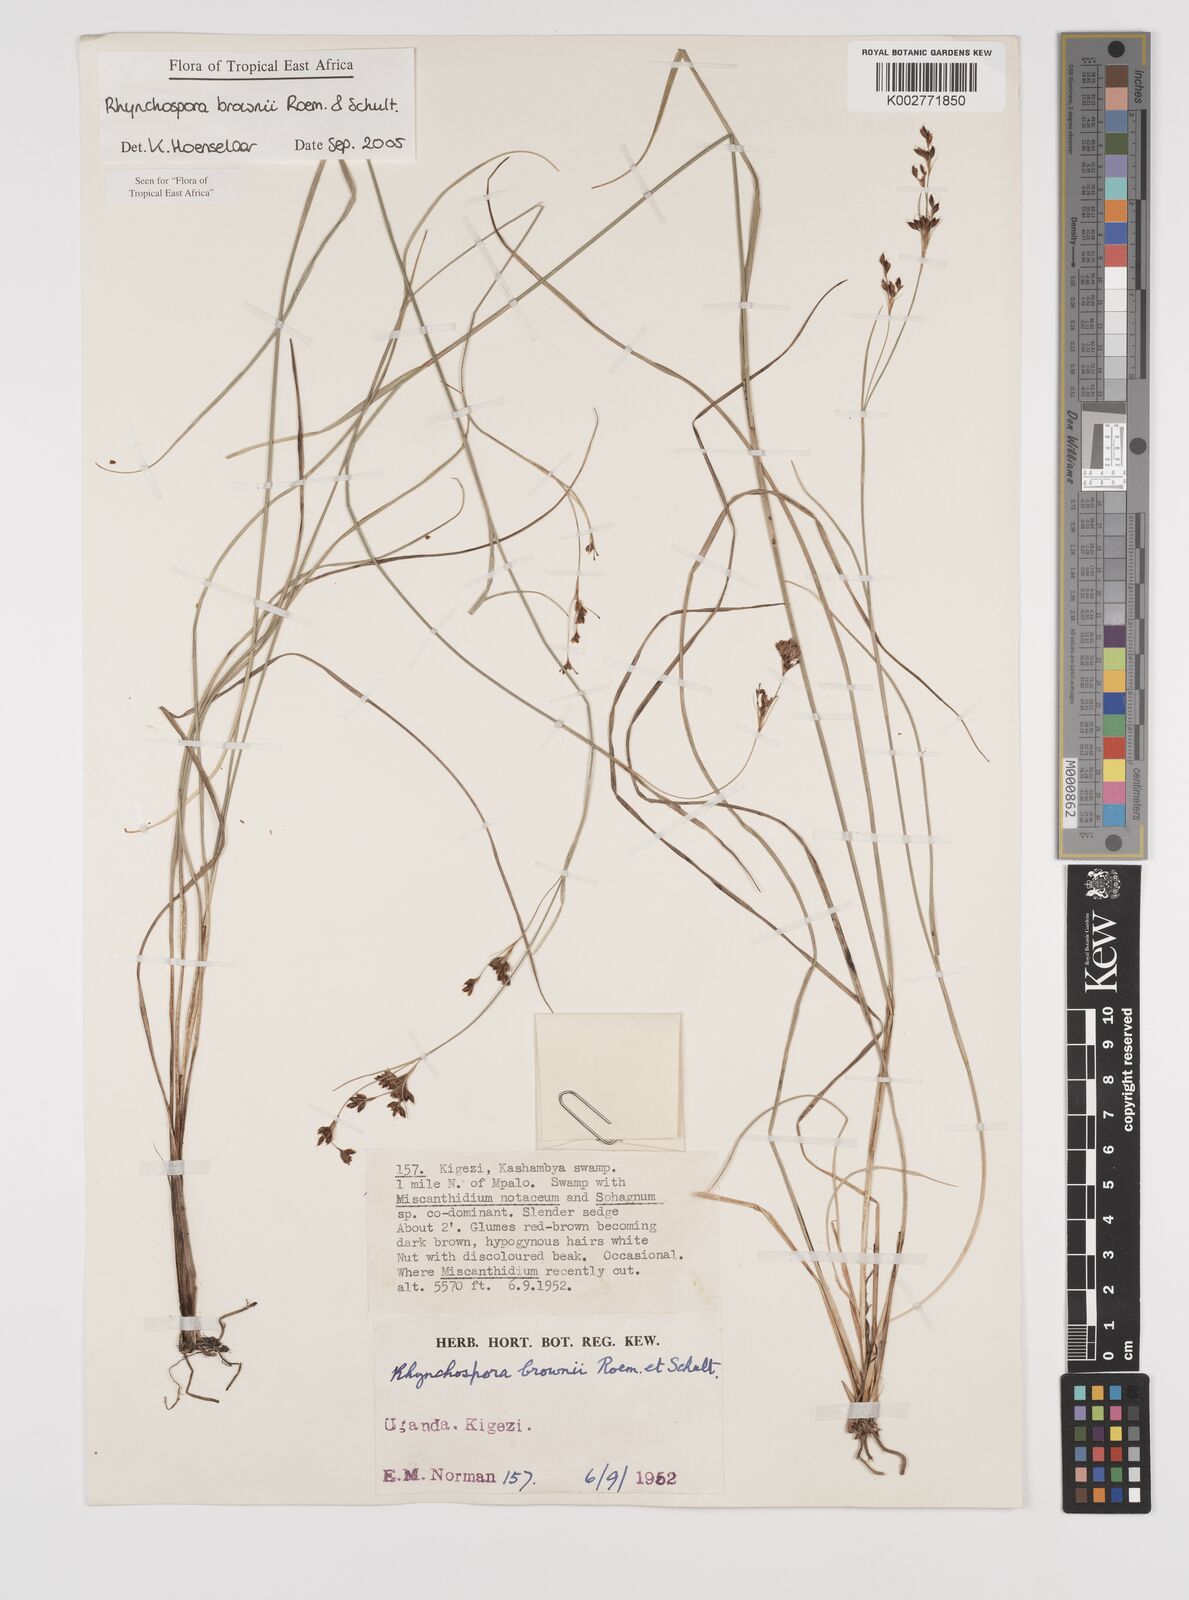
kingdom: Plantae
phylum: Tracheophyta
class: Liliopsida
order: Poales
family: Cyperaceae
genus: Rhynchospora
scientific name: Rhynchospora brownii
